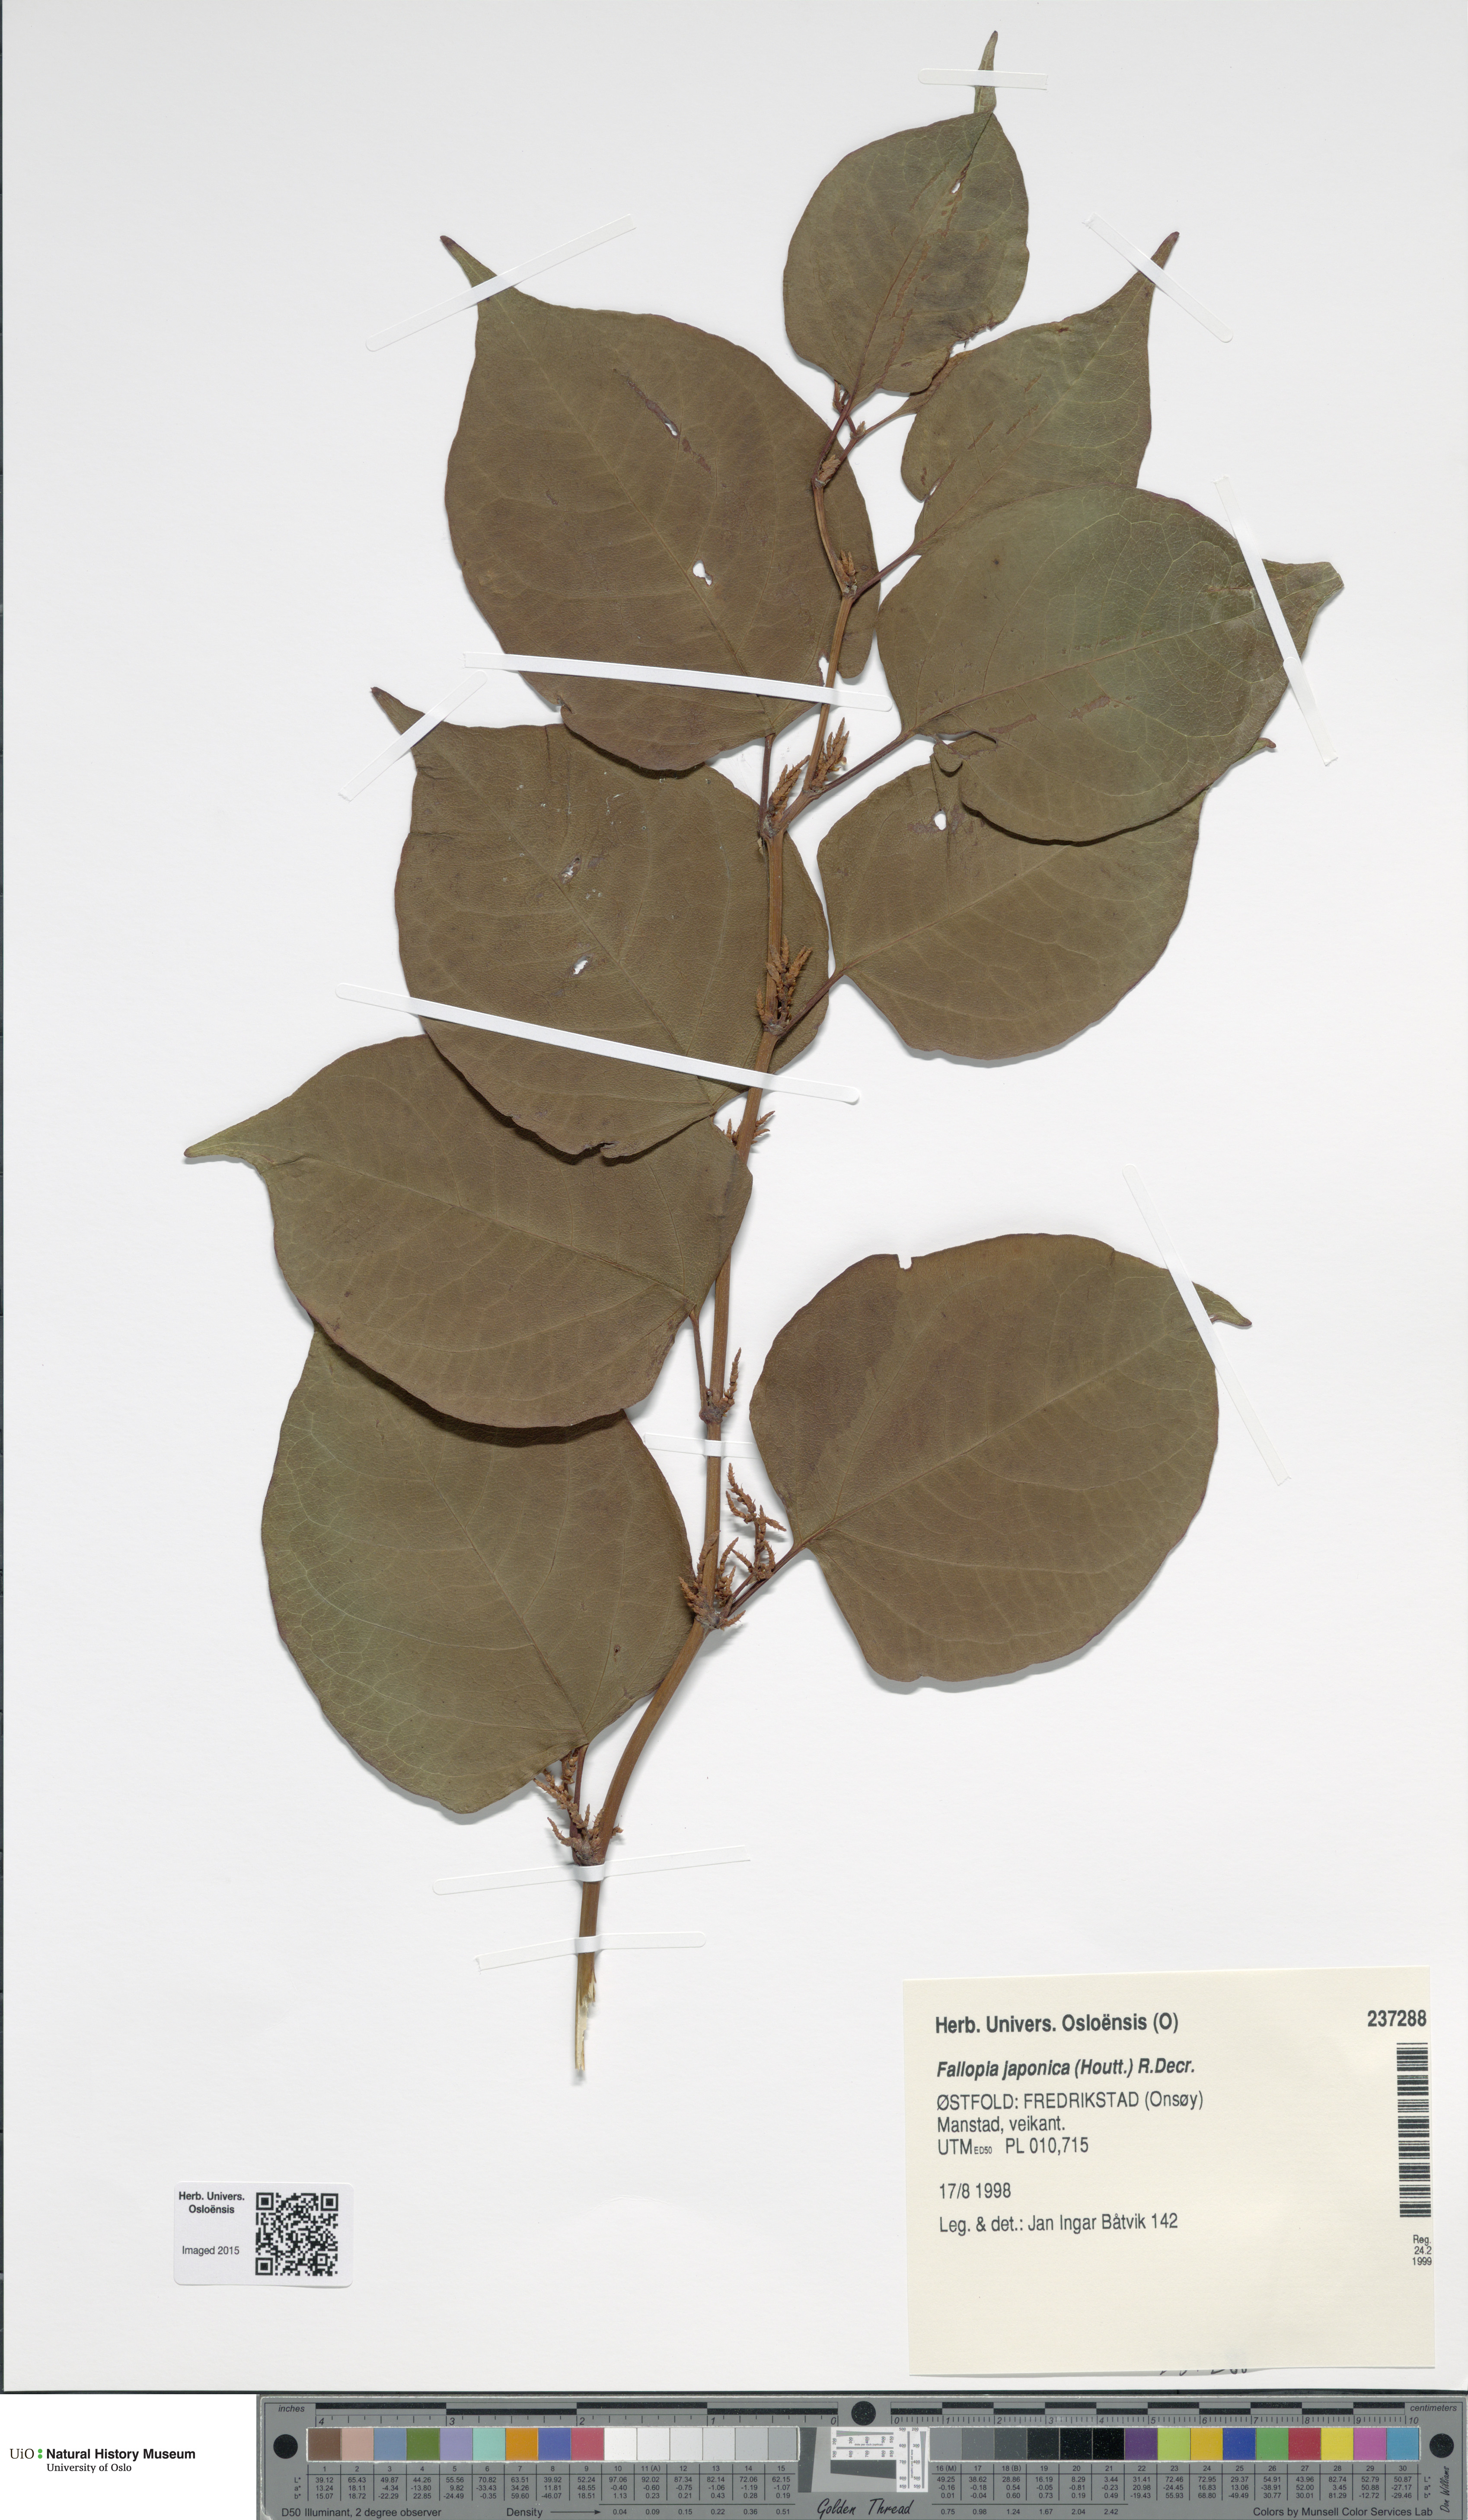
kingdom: Plantae
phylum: Tracheophyta
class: Magnoliopsida
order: Caryophyllales
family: Polygonaceae
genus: Reynoutria
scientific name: Reynoutria japonica
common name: Japanese knotweed
